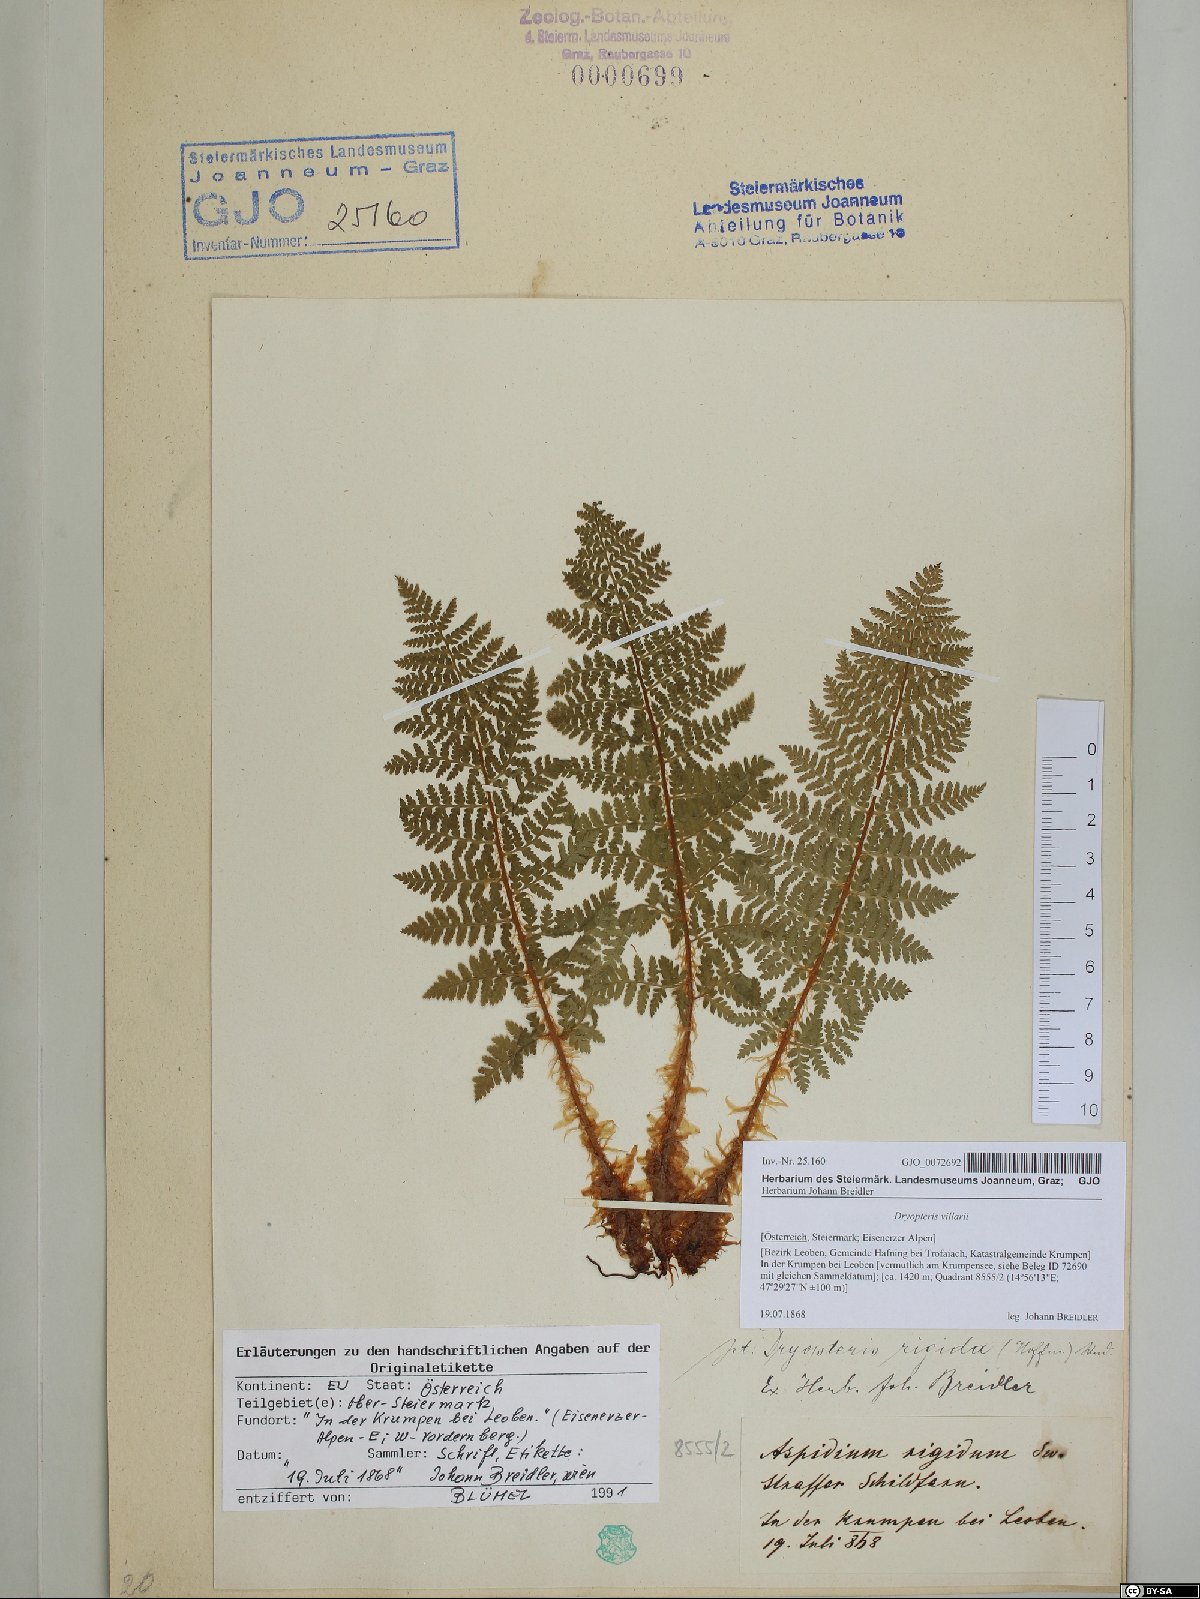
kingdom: Plantae
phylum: Tracheophyta
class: Polypodiopsida
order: Polypodiales
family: Dryopteridaceae
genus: Dryopteris
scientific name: Dryopteris villarii
